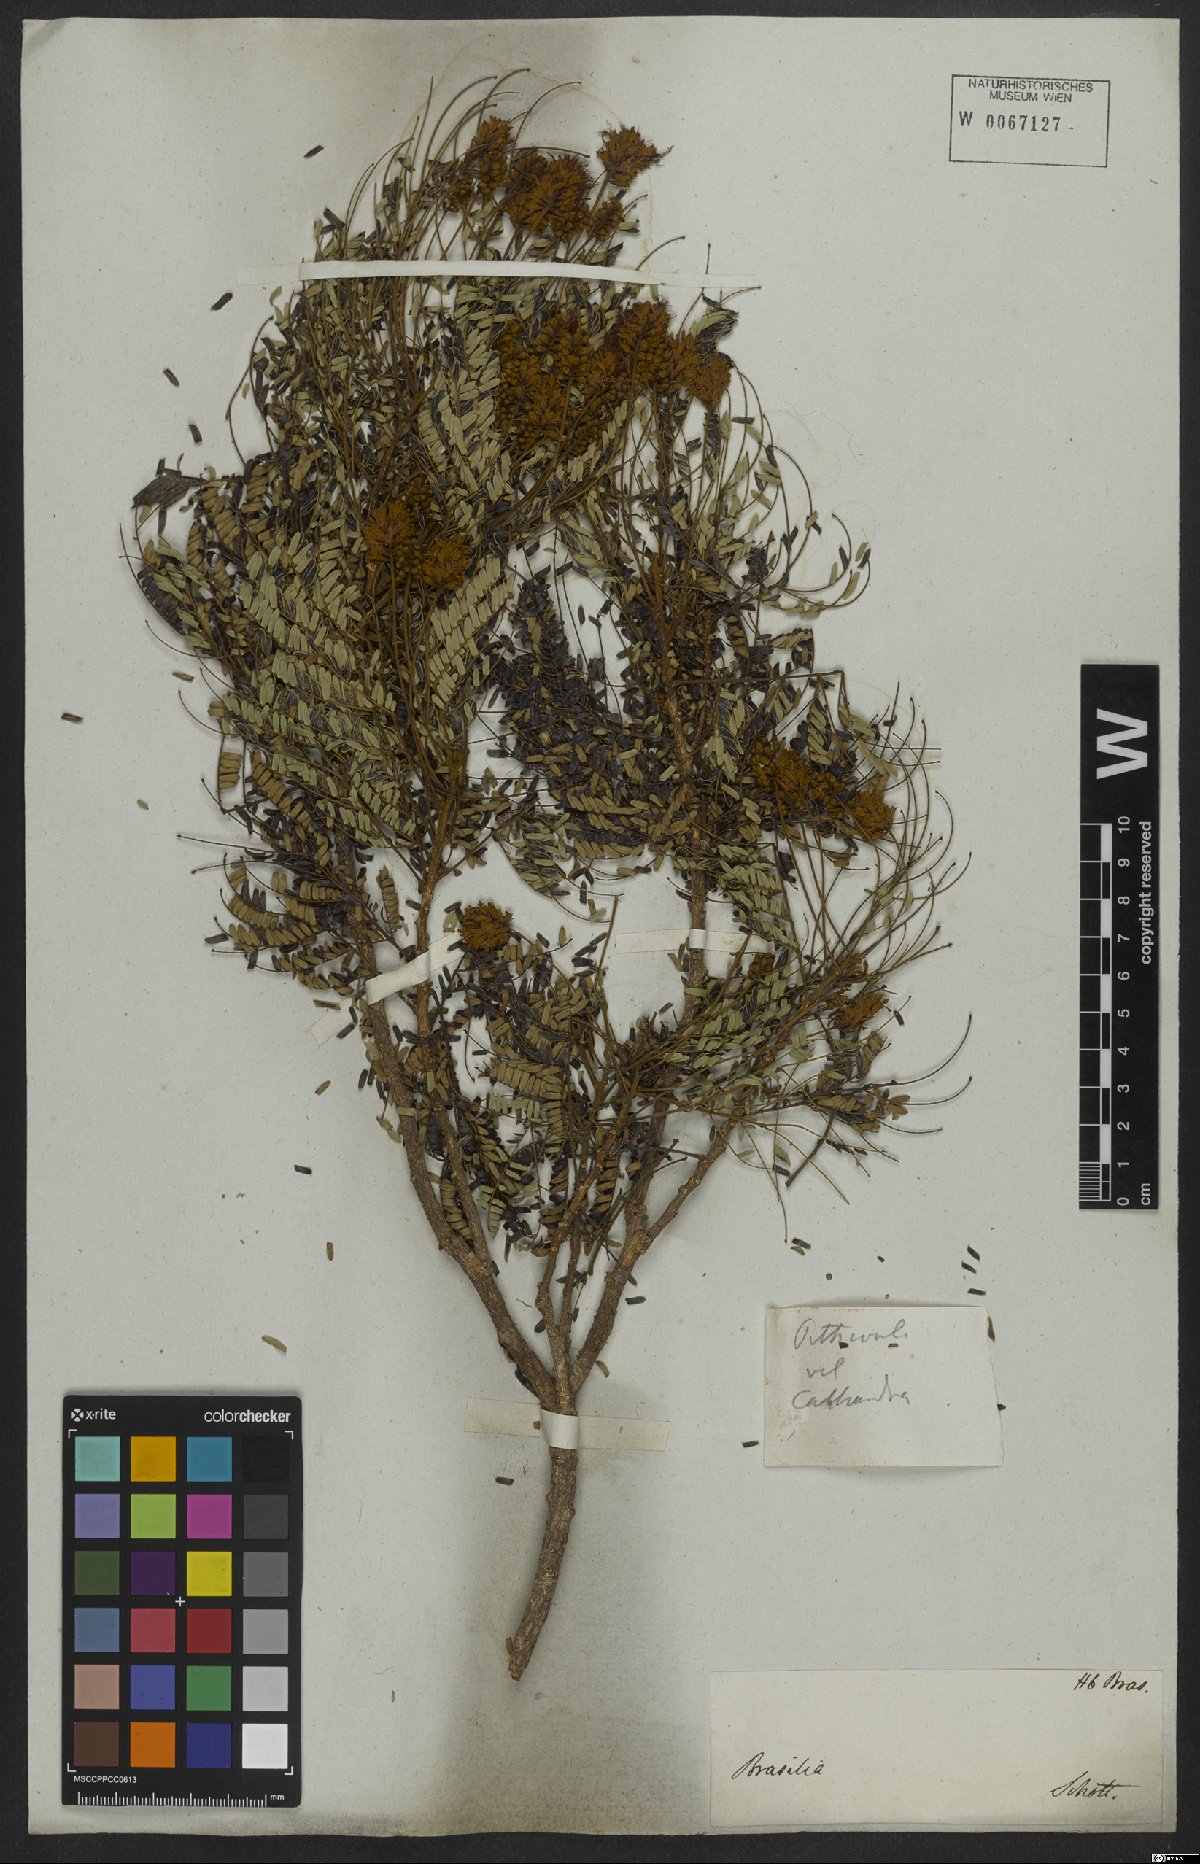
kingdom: Plantae
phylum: Tracheophyta
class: Magnoliopsida
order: Fabales
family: Fabaceae
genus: Jupunba
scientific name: Jupunba langsdorffii
